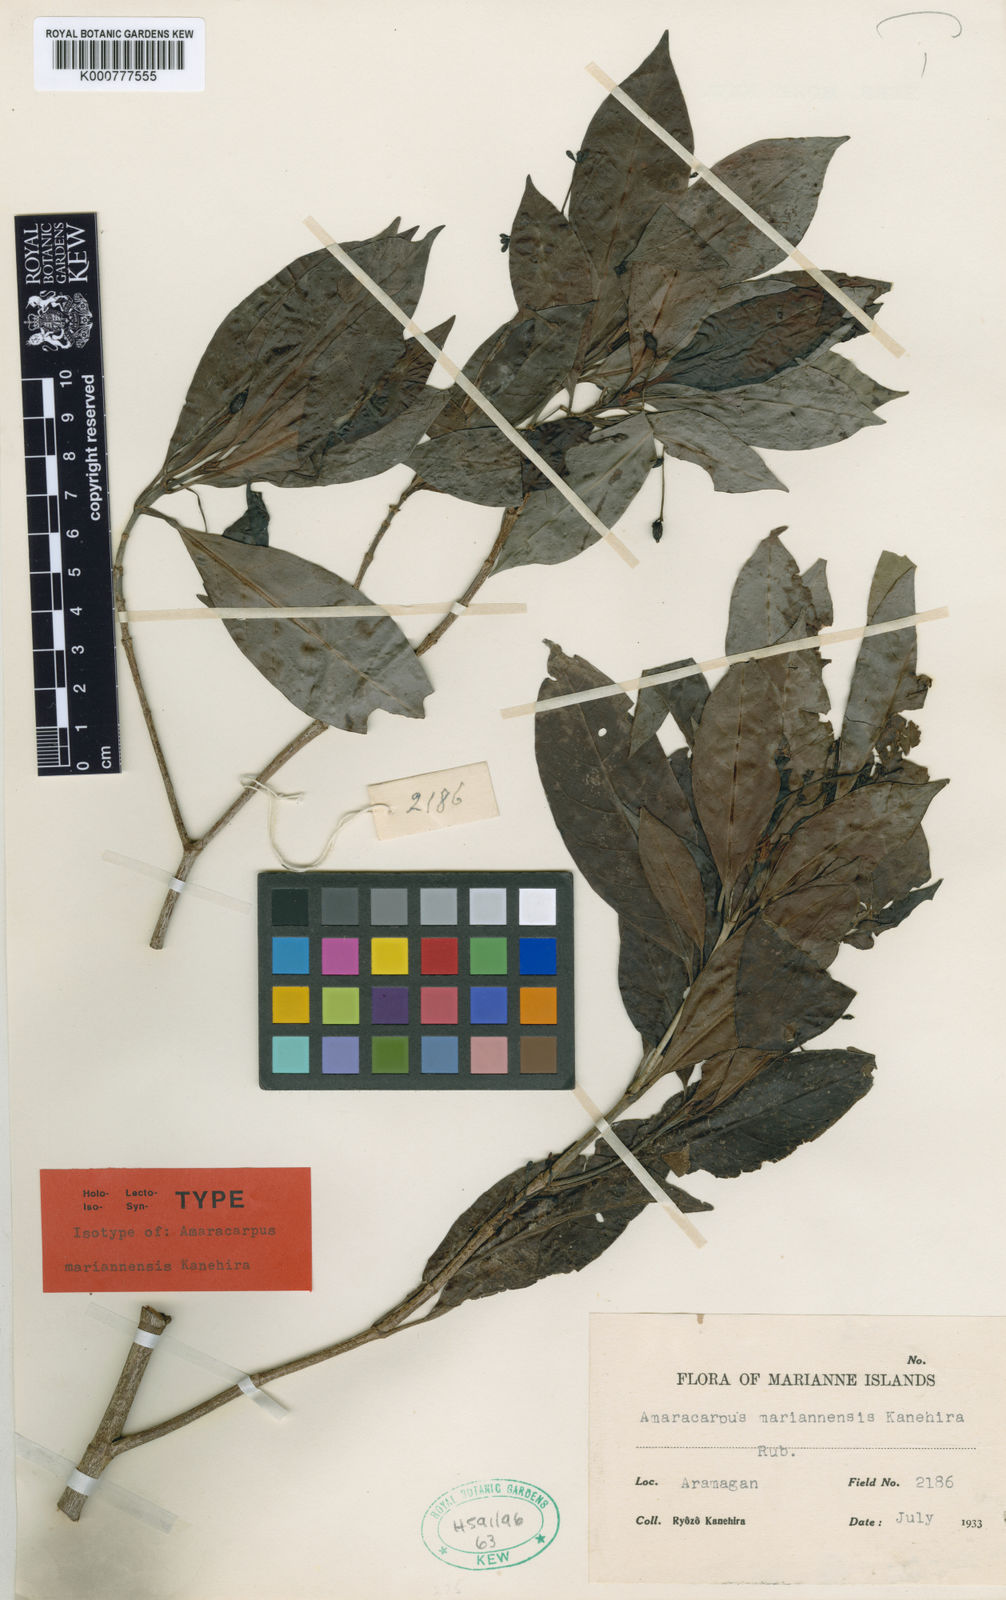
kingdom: Plantae
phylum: Tracheophyta
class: Magnoliopsida
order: Gentianales
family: Rubiaceae
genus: Psychotria
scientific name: Psychotria hombroniana
